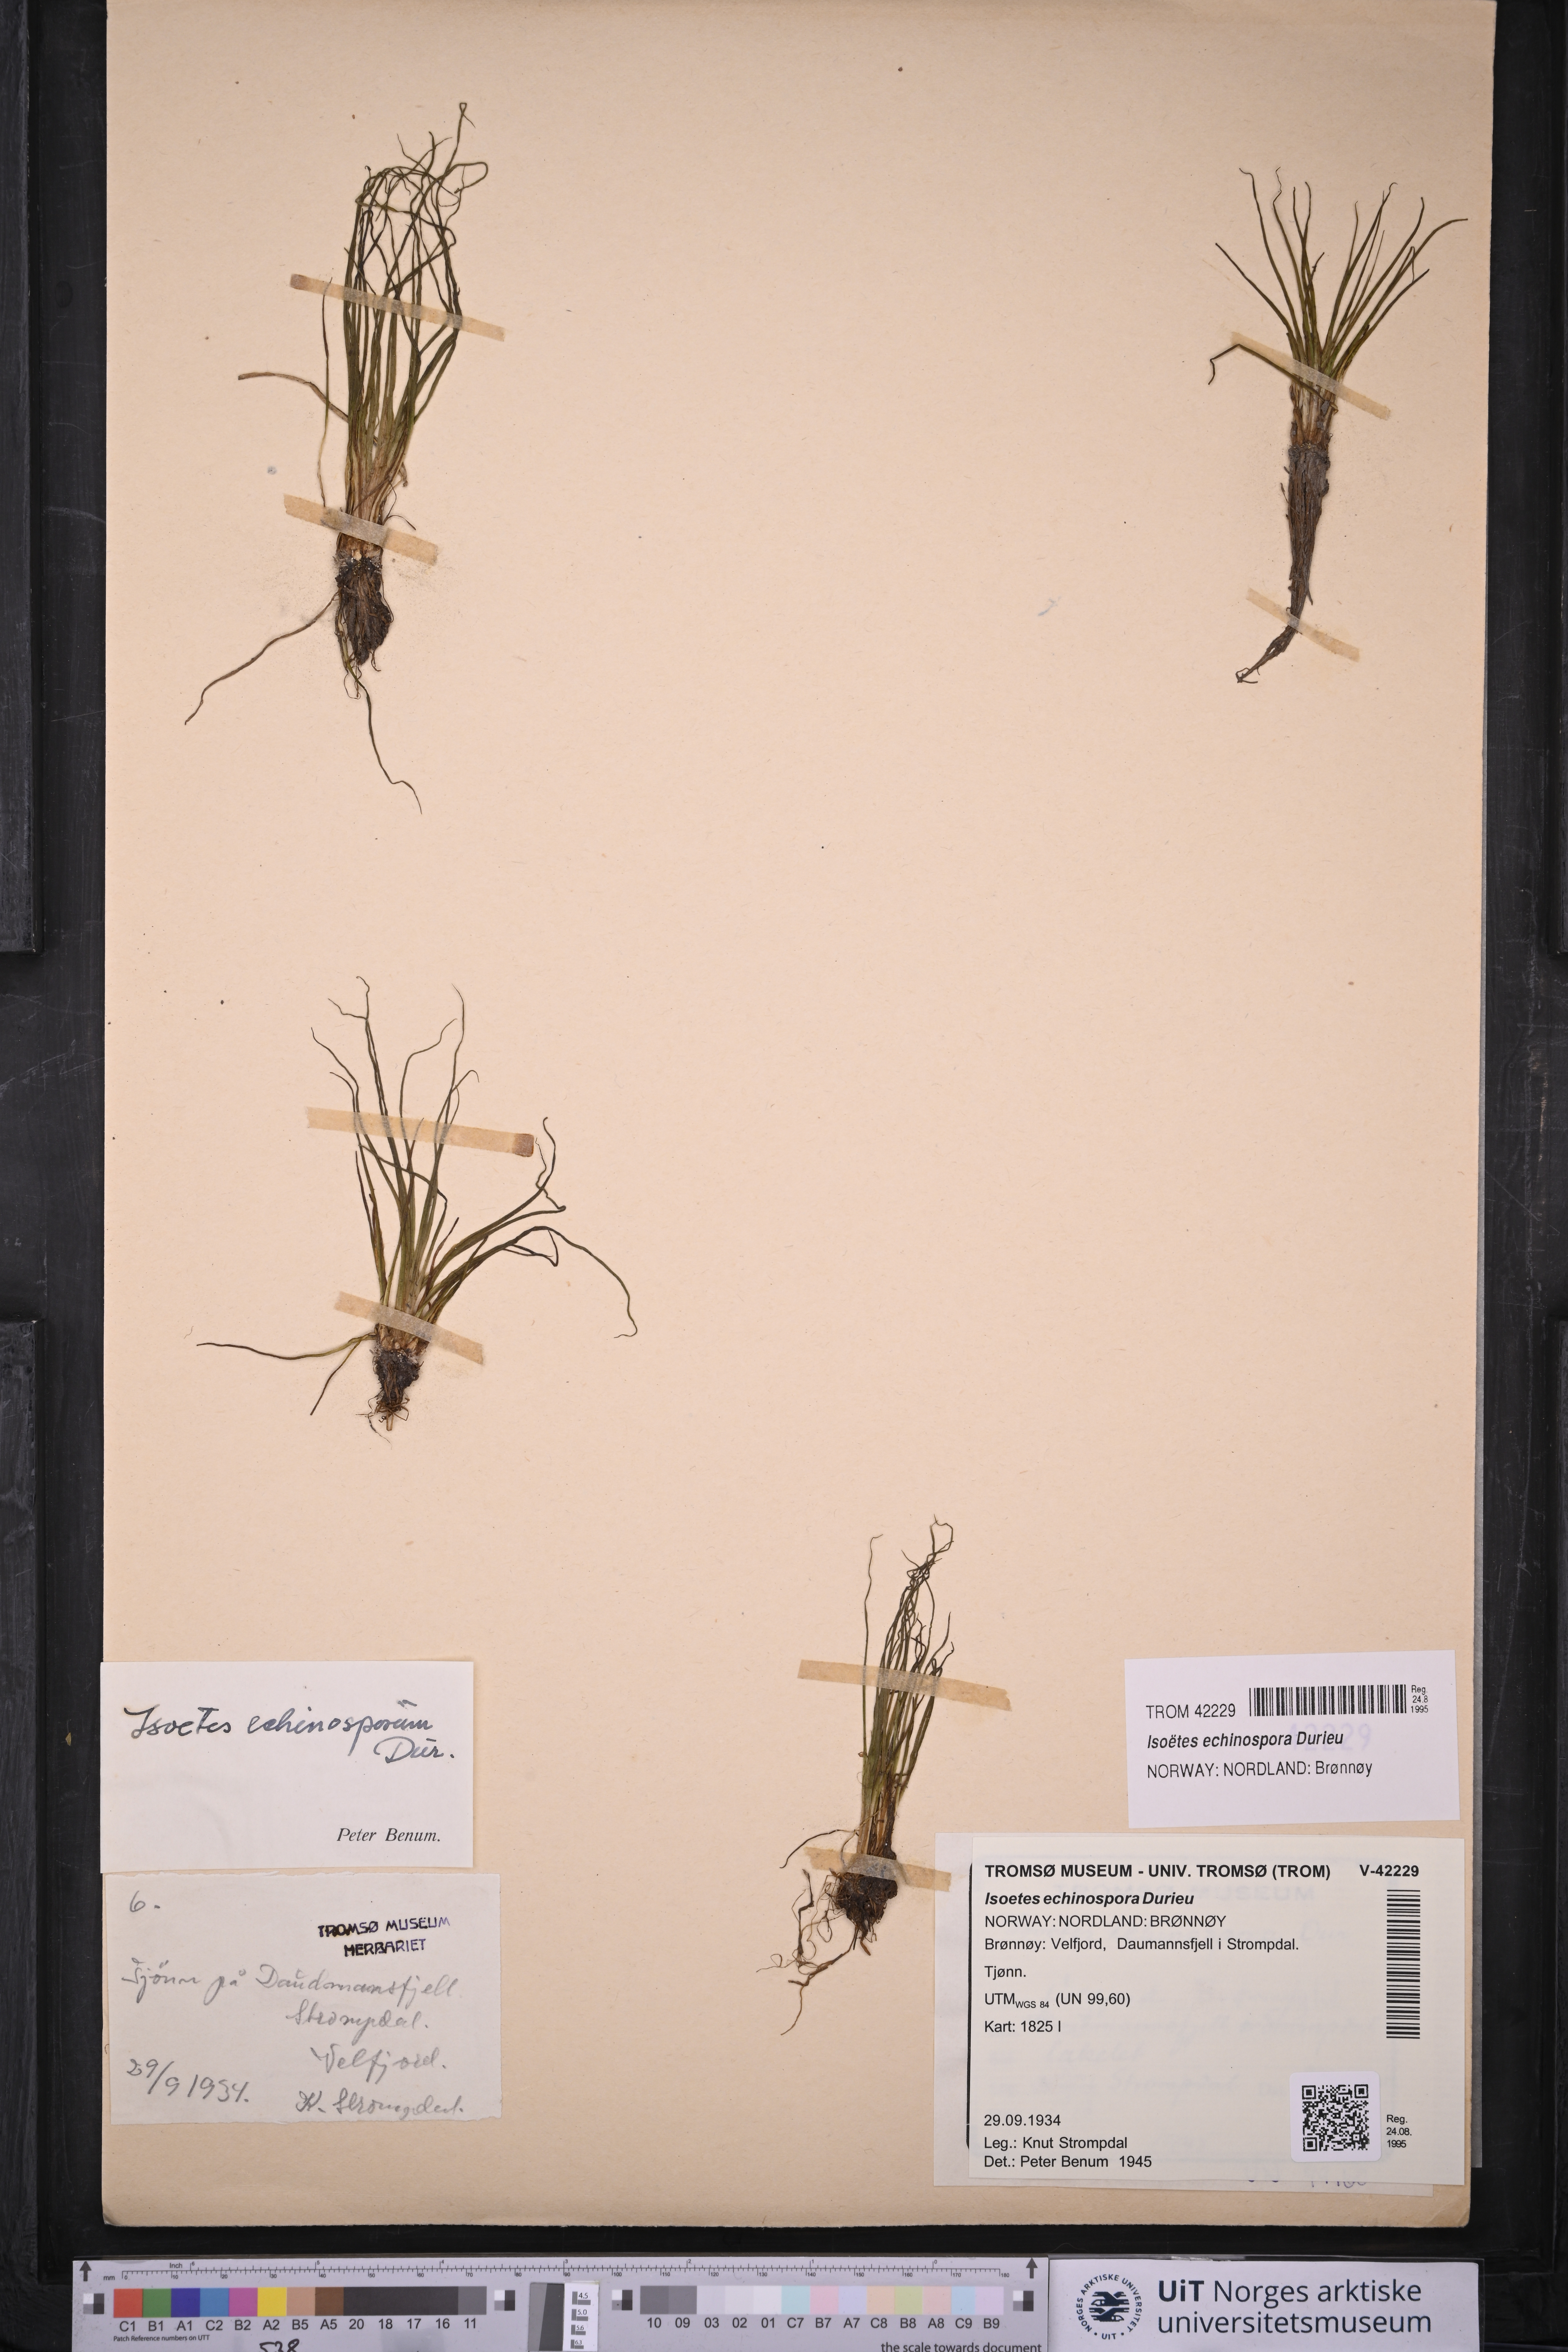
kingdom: Plantae
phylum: Tracheophyta
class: Lycopodiopsida
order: Isoetales
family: Isoetaceae
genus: Isoetes
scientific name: Isoetes echinospora
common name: Spring quillwort
